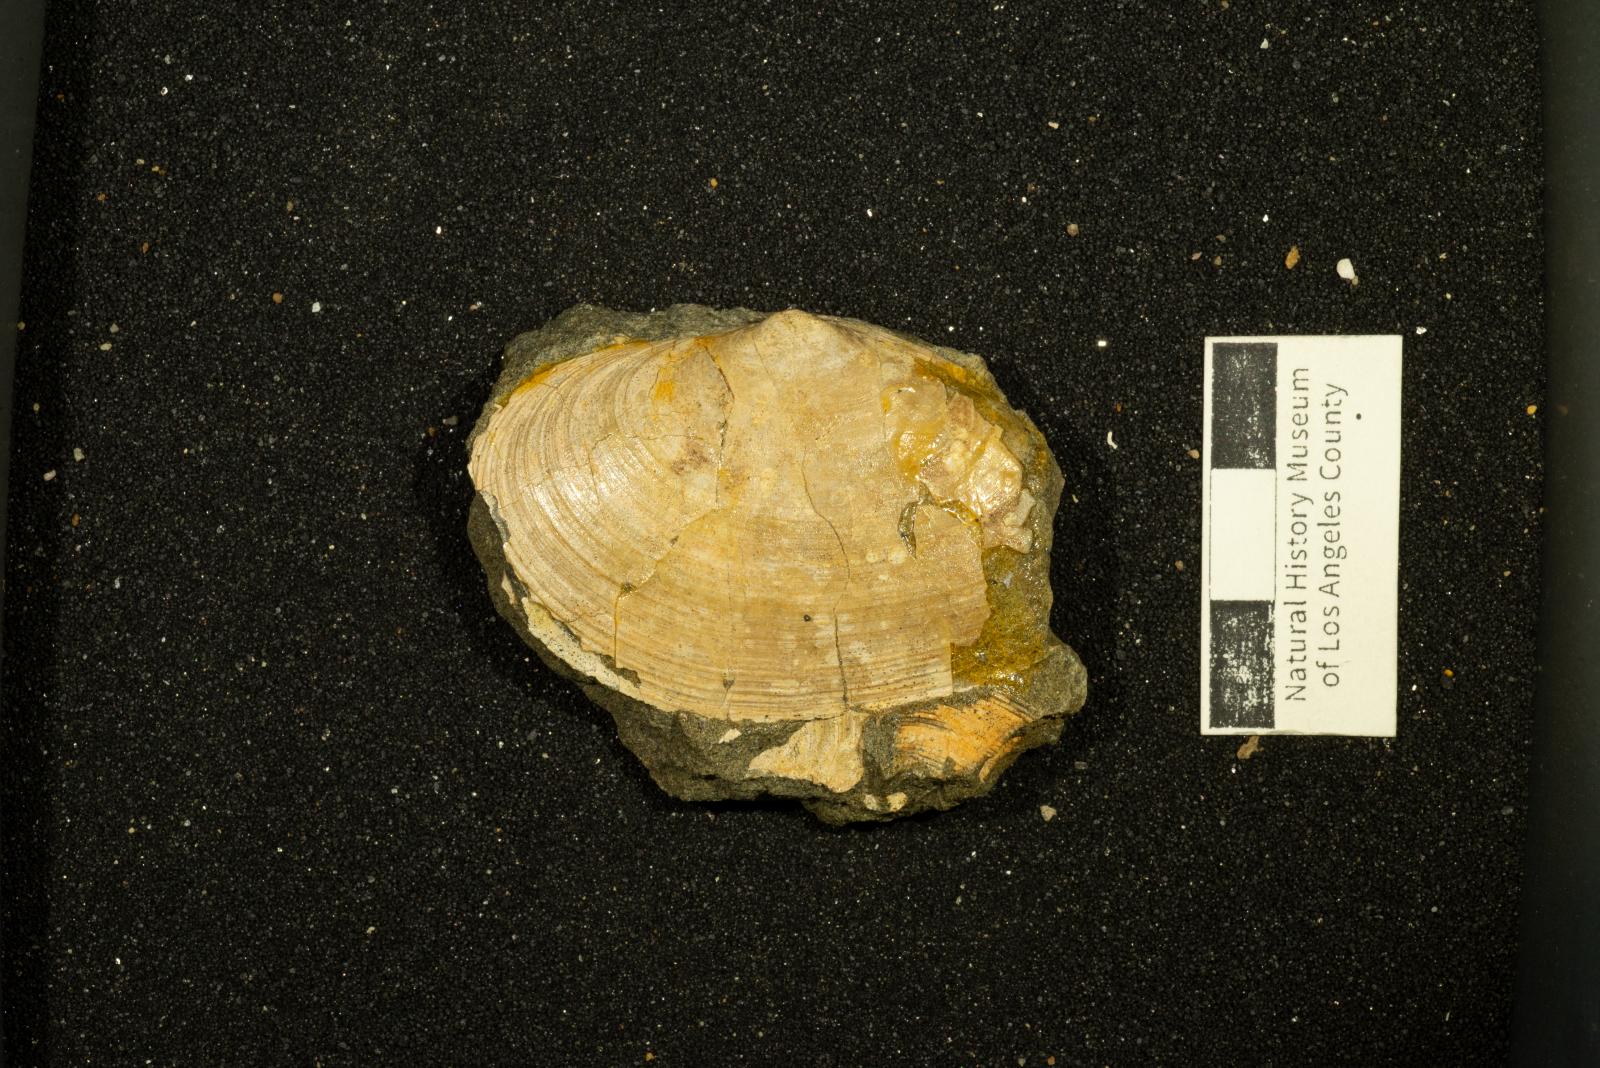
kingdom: Animalia
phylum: Mollusca
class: Bivalvia
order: Venerida
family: Mactridae
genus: Willimactra
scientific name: Willimactra popenoei
